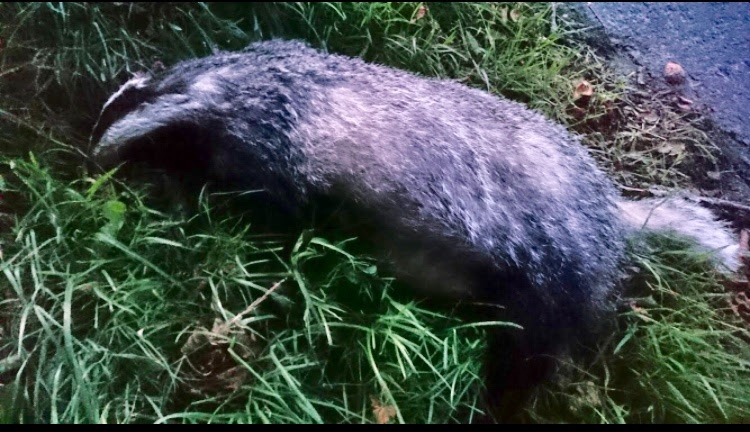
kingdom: Animalia
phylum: Chordata
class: Mammalia
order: Carnivora
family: Mustelidae
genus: Meles
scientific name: Meles meles
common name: Grævling
